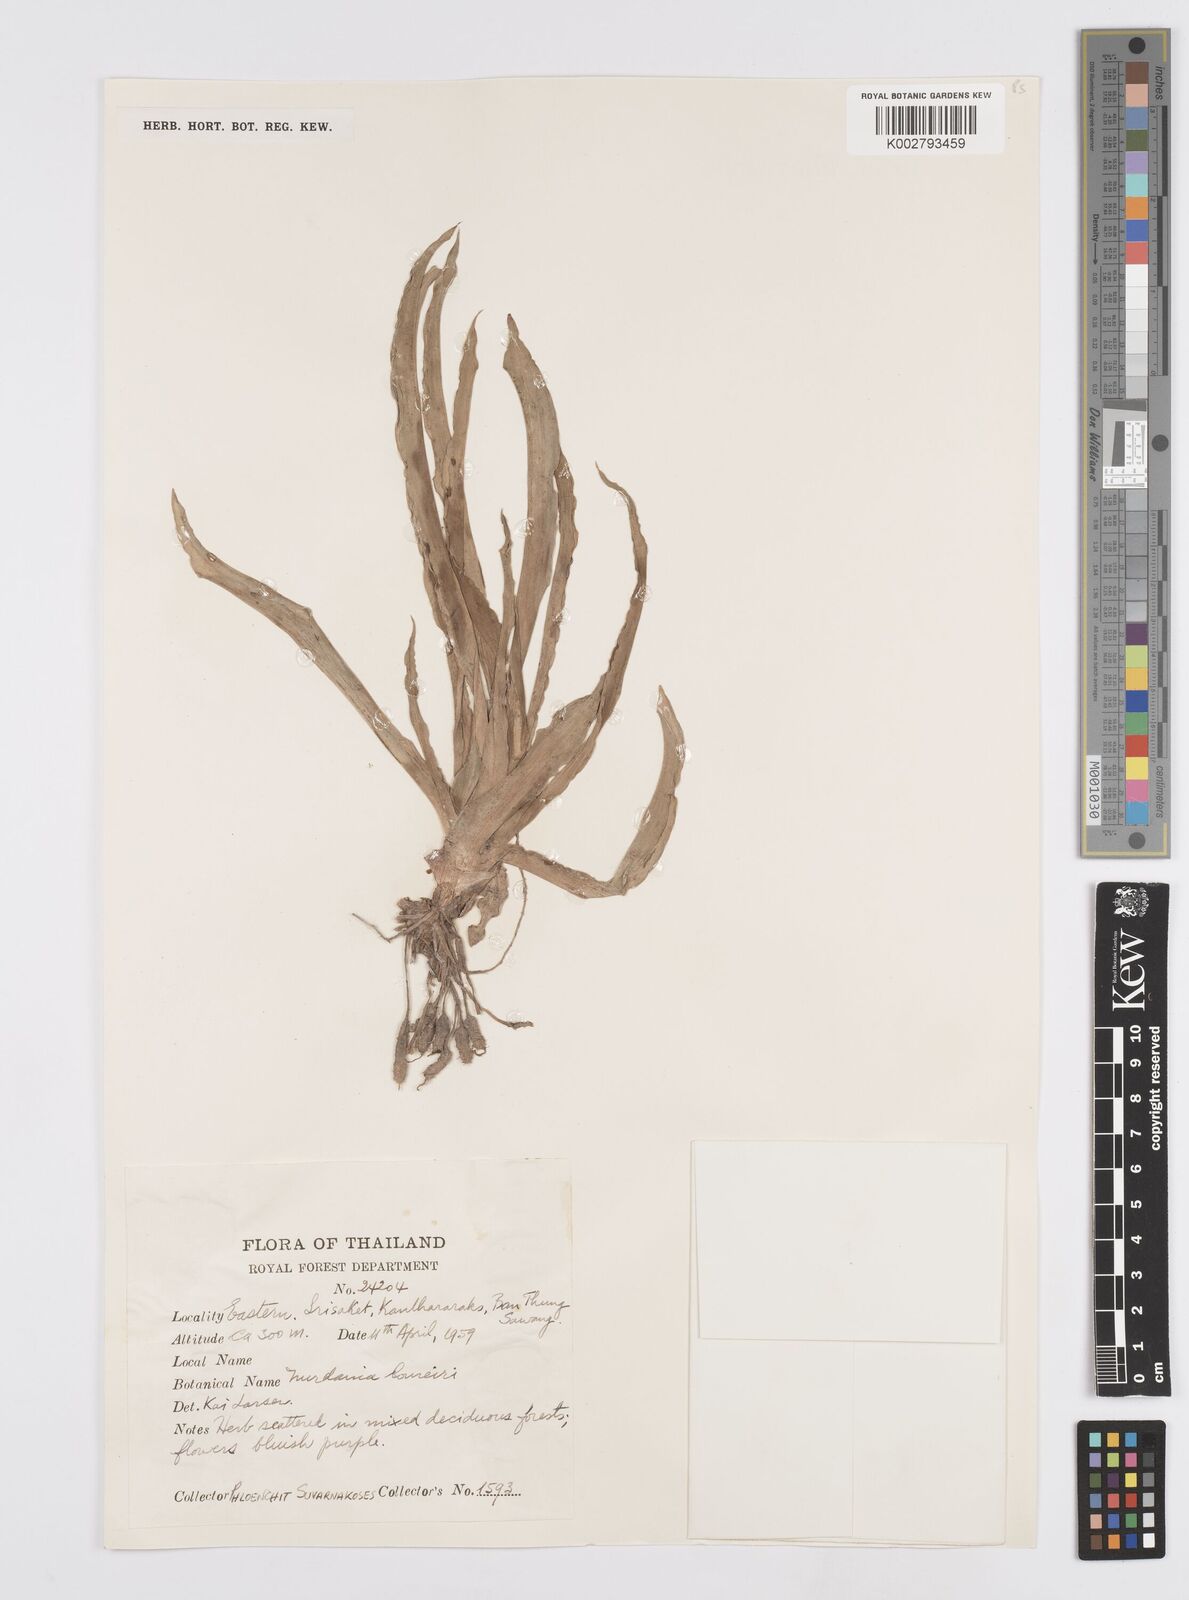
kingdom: Plantae
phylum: Tracheophyta
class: Liliopsida
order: Commelinales
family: Commelinaceae
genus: Murdannia
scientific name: Murdannia edulis
